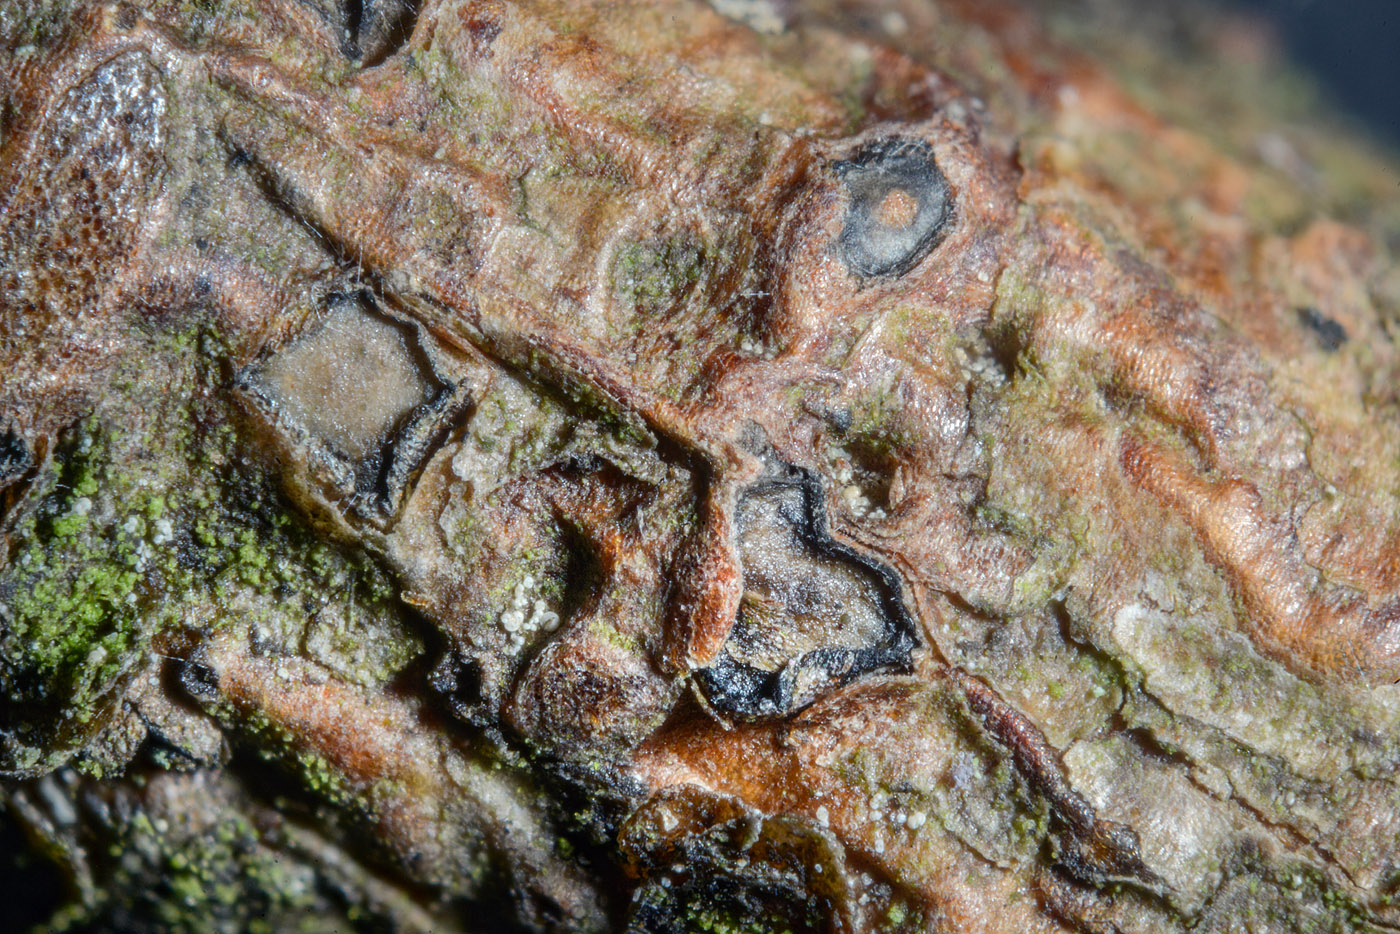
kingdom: Fungi
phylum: Ascomycota
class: Leotiomycetes
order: Rhytismatales
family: Rhytismataceae
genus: Therrya
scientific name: Therrya pini
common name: fyrre-tandskive
